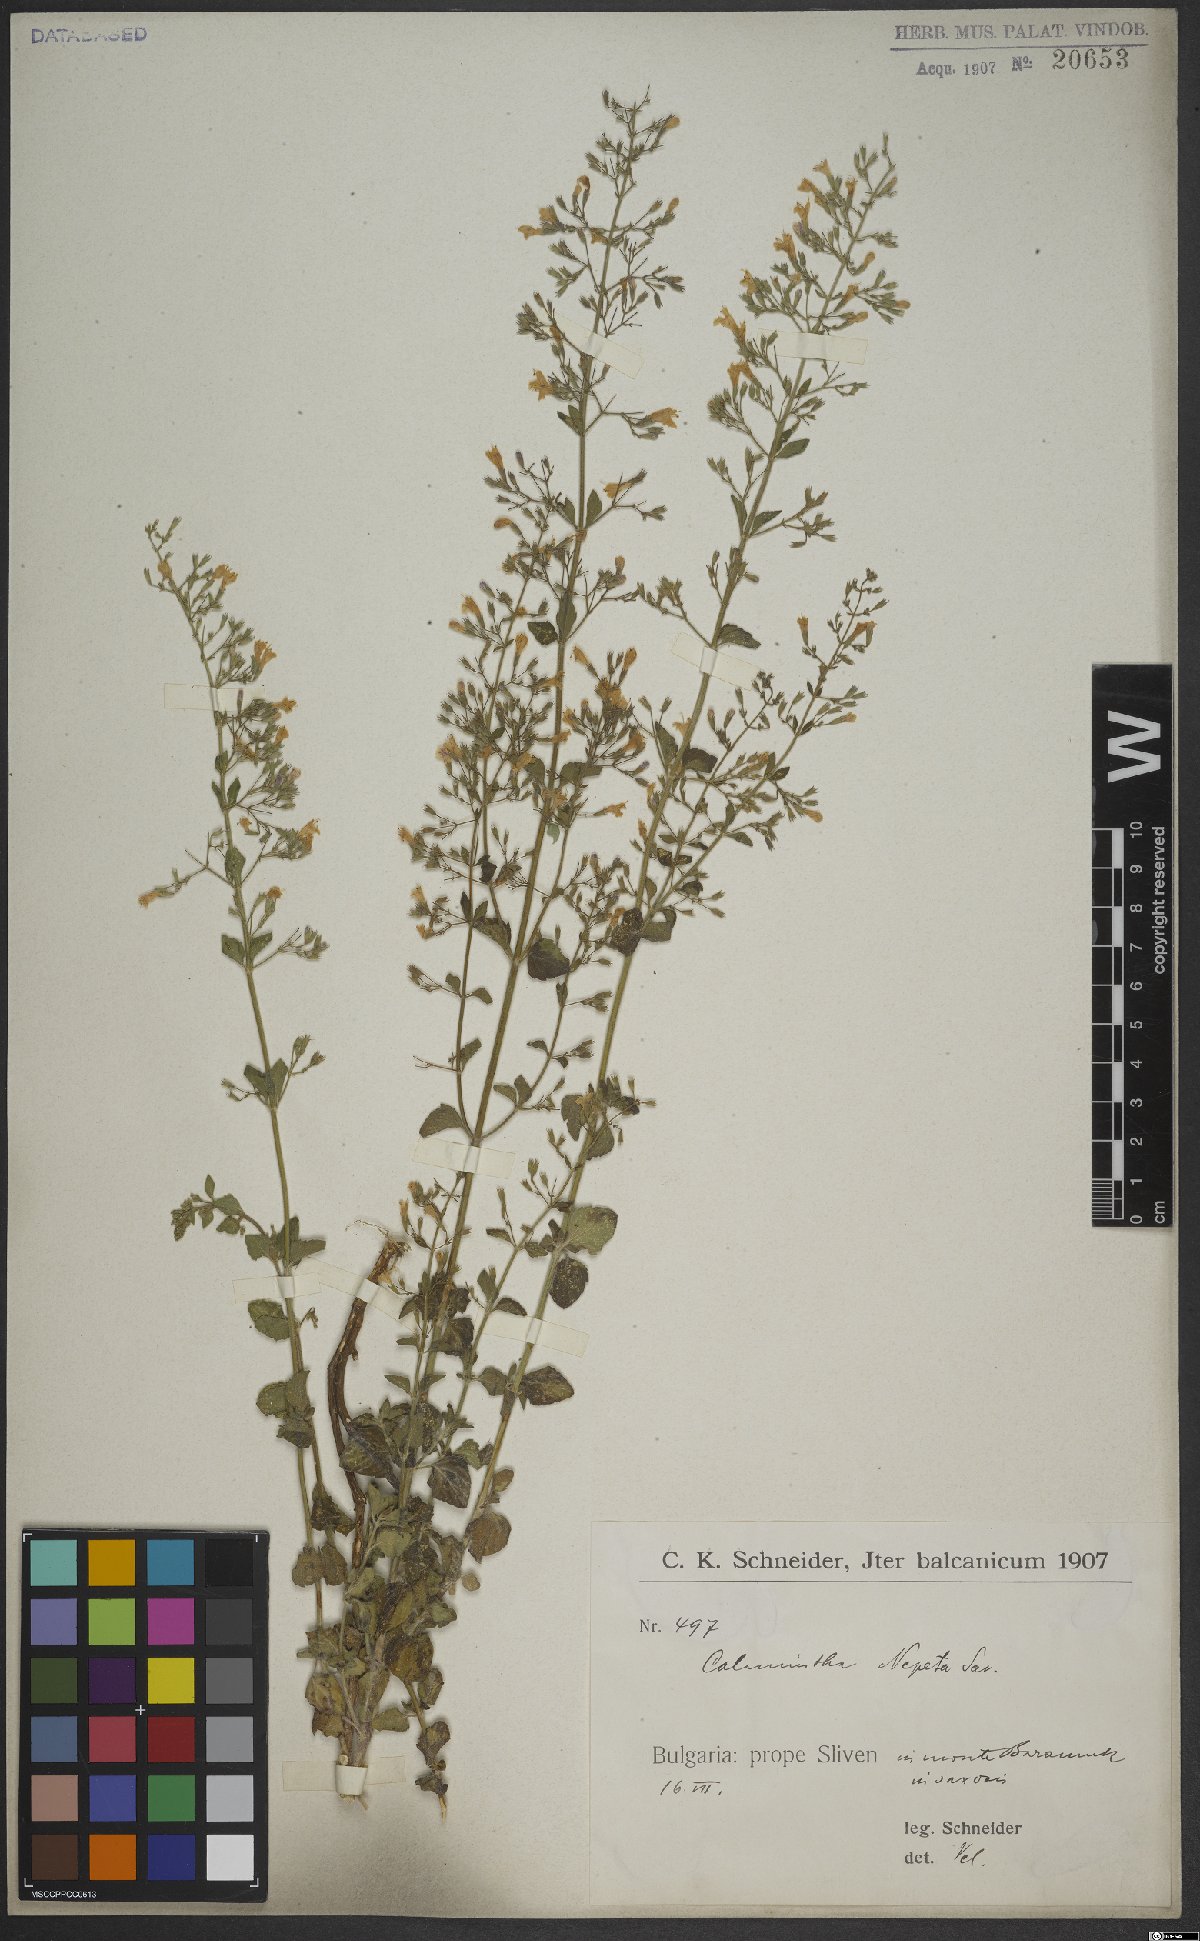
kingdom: Plantae
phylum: Tracheophyta
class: Magnoliopsida
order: Lamiales
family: Lamiaceae
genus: Clinopodium
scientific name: Clinopodium nepeta
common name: Lesser calamint
